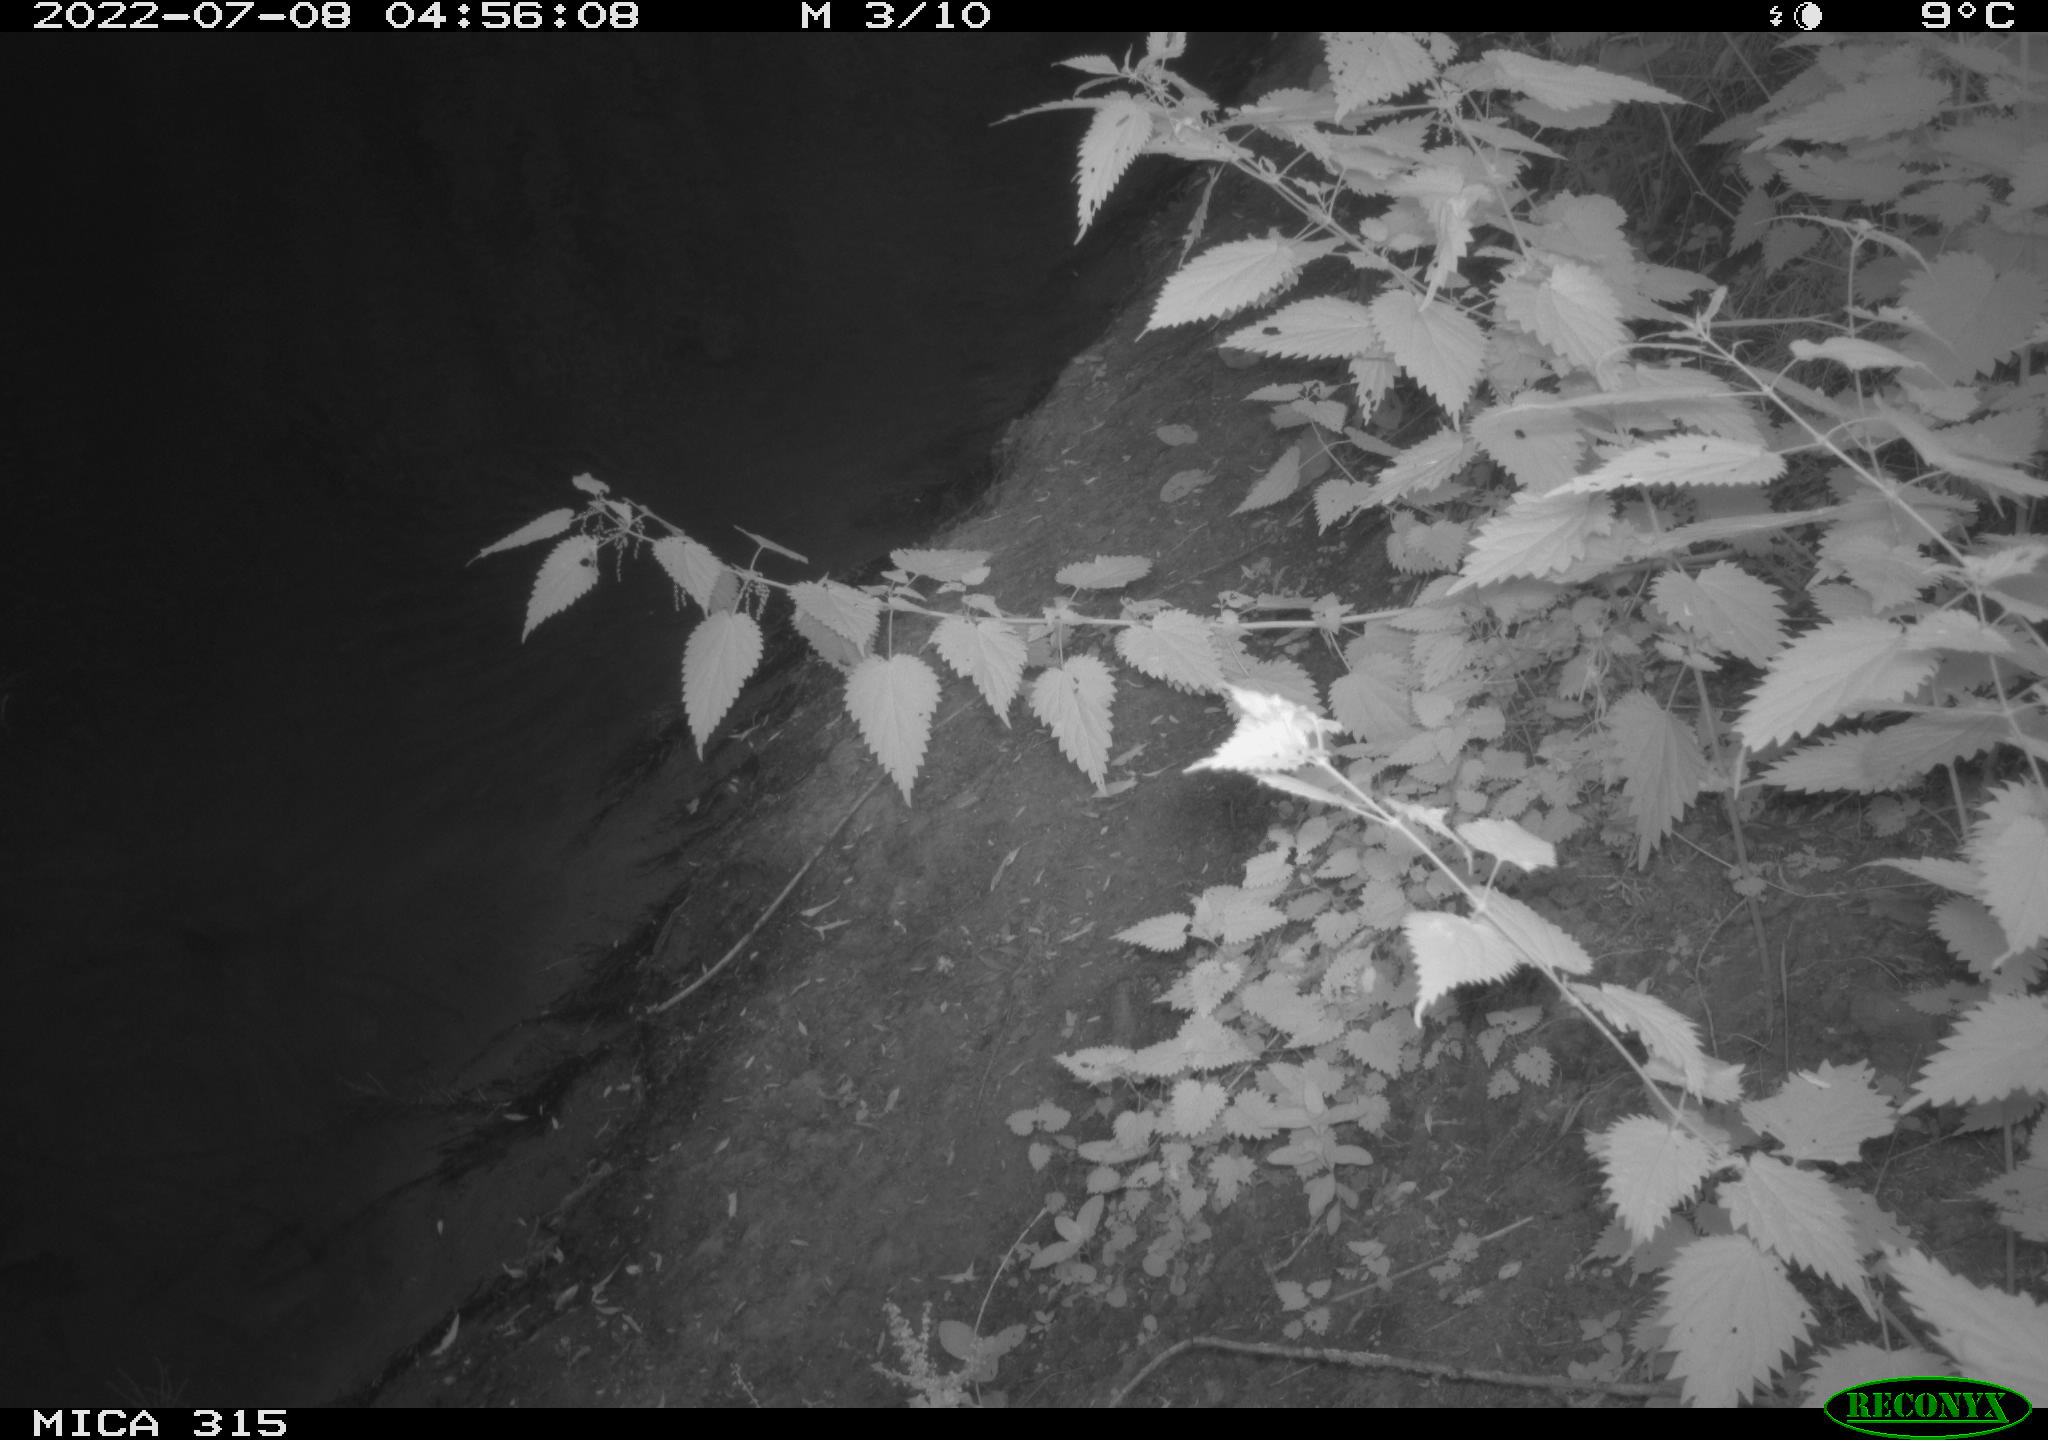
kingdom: Animalia
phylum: Chordata
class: Aves
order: Anseriformes
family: Anatidae
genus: Anas
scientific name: Anas platyrhynchos
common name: Mallard
